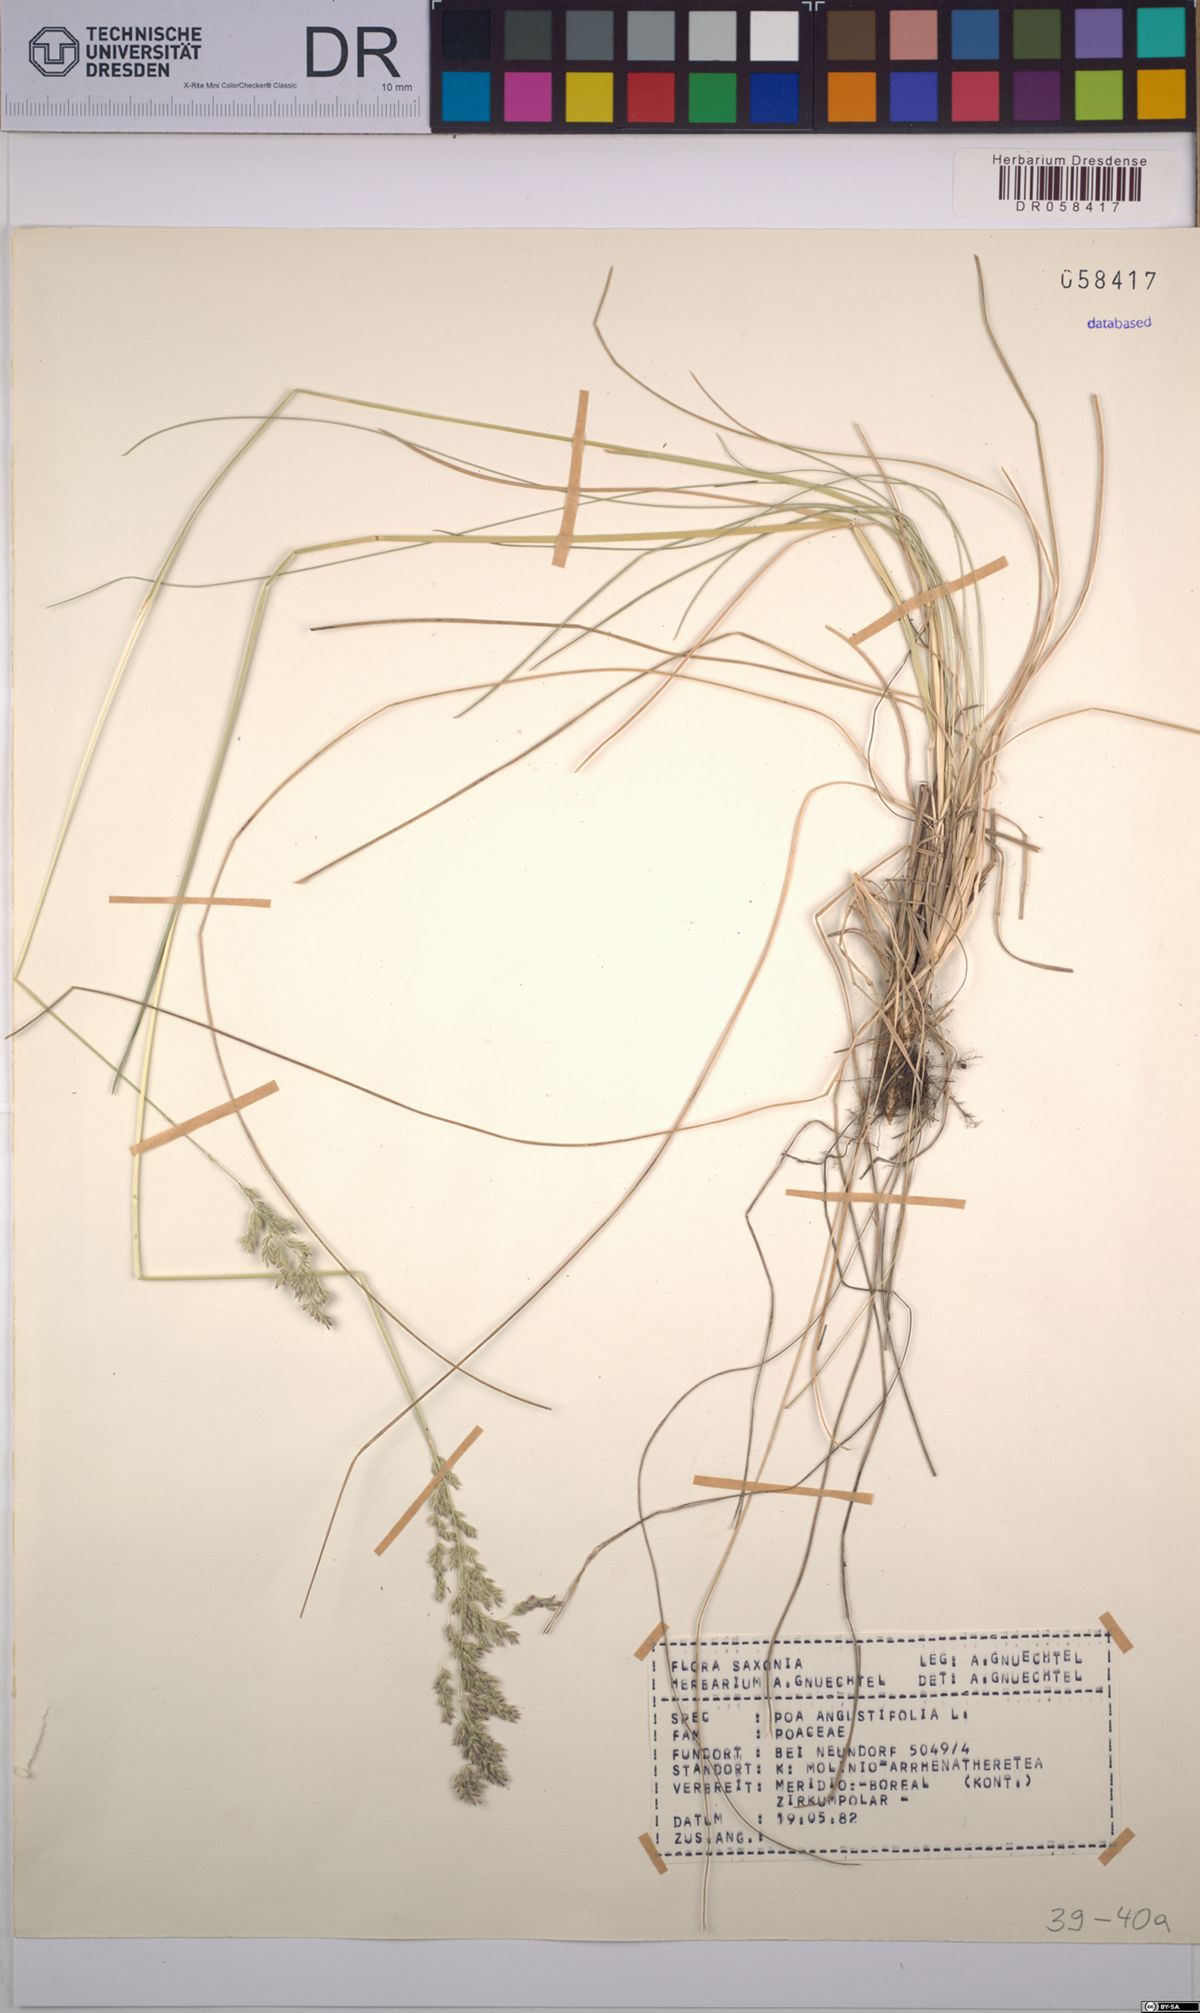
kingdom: Plantae
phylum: Tracheophyta
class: Liliopsida
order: Poales
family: Poaceae
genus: Poa
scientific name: Poa angustifolia
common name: Narrow-leaved meadow-grass
